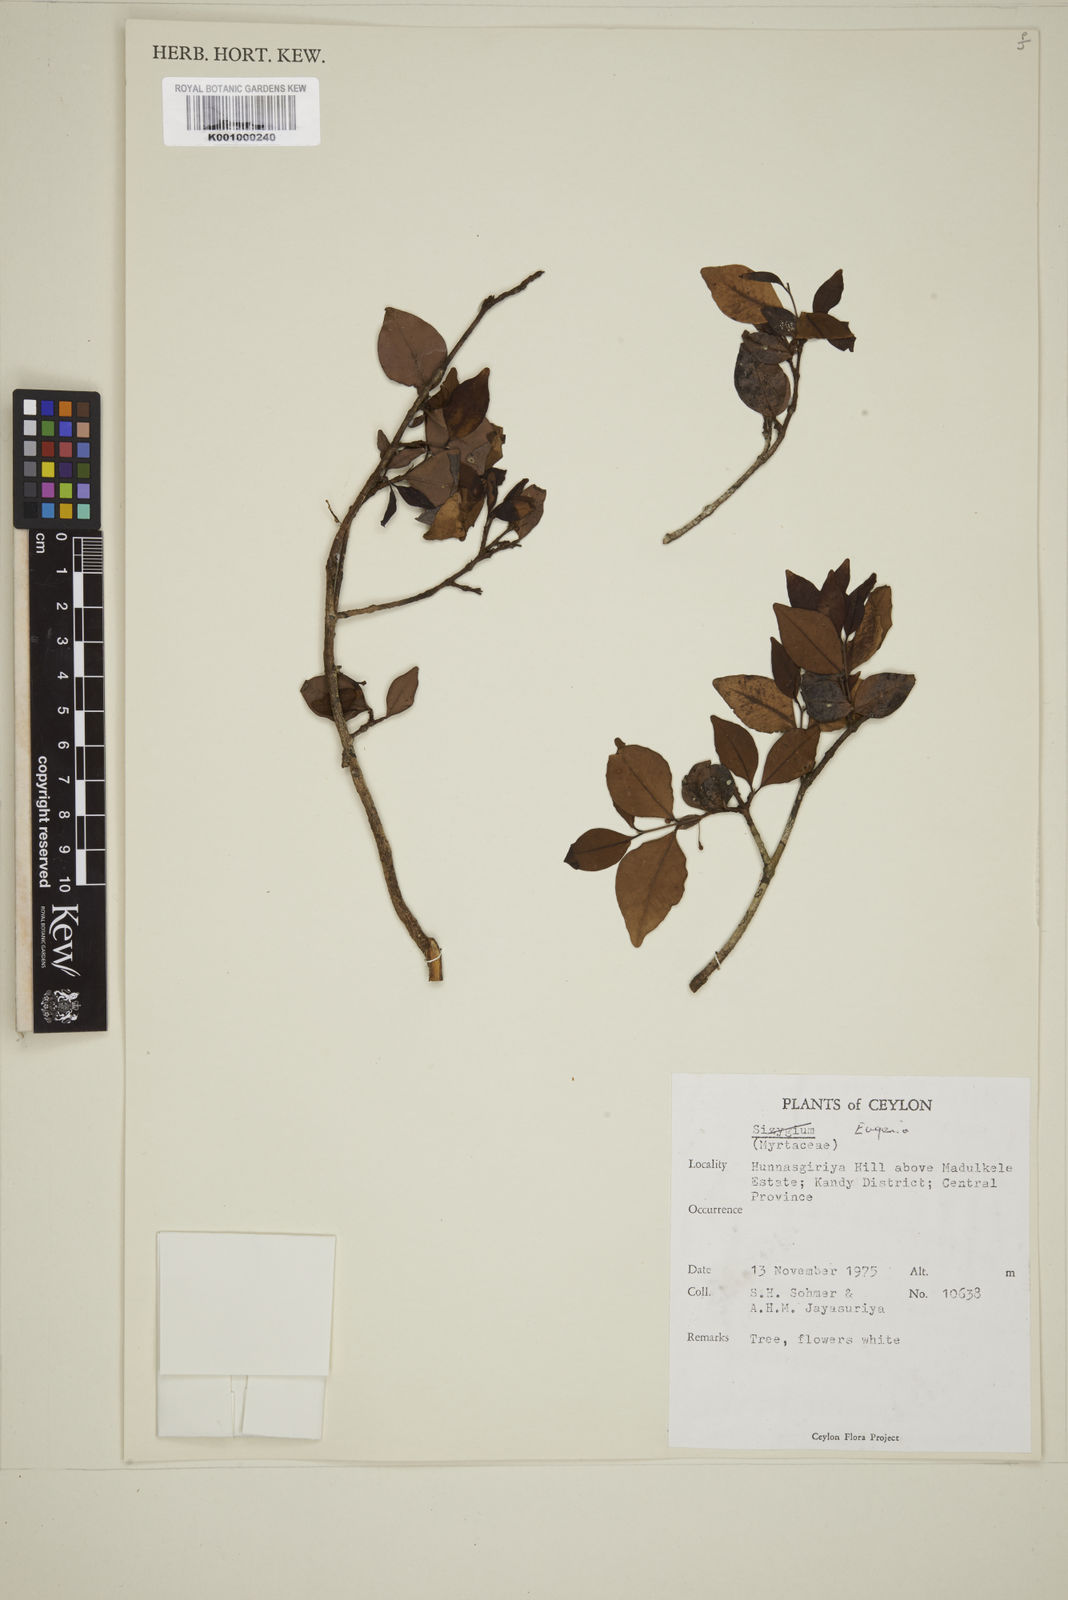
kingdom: Plantae
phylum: Tracheophyta
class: Magnoliopsida
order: Myrtales
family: Myrtaceae
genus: Eugenia
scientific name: Eugenia
